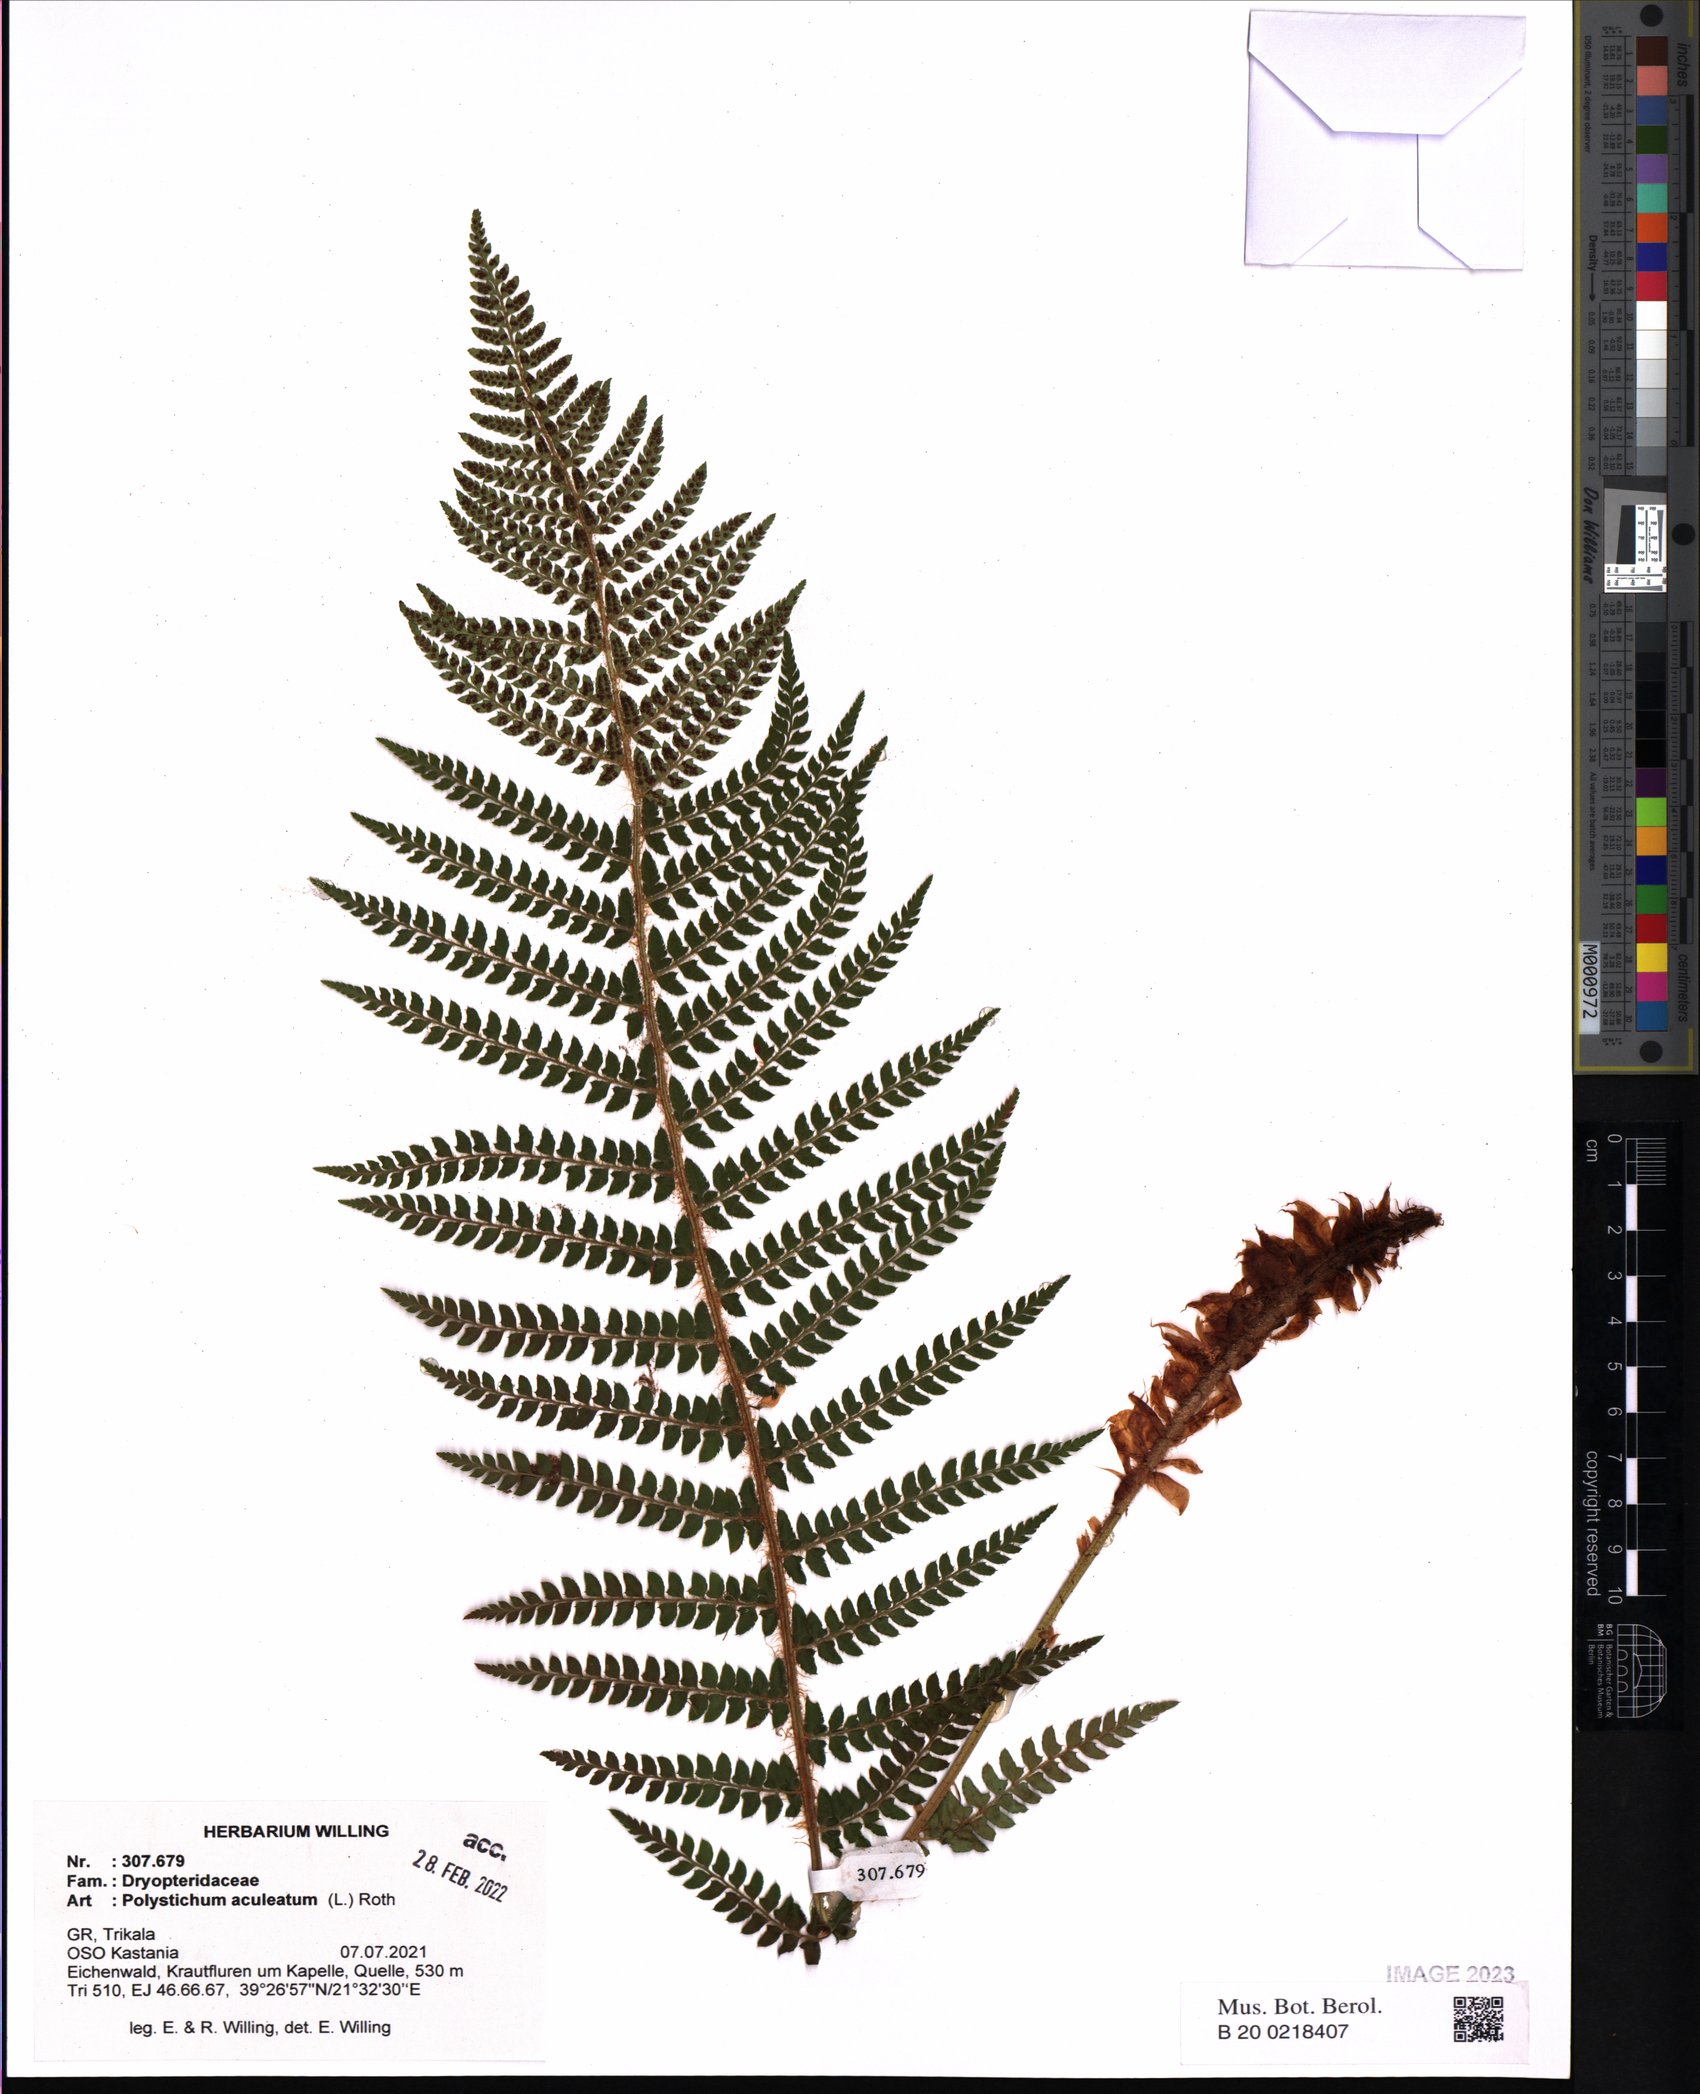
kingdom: Plantae
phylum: Tracheophyta
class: Polypodiopsida
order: Polypodiales
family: Dryopteridaceae
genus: Polystichum
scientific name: Polystichum aculeatum
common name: Hard shield-fern
